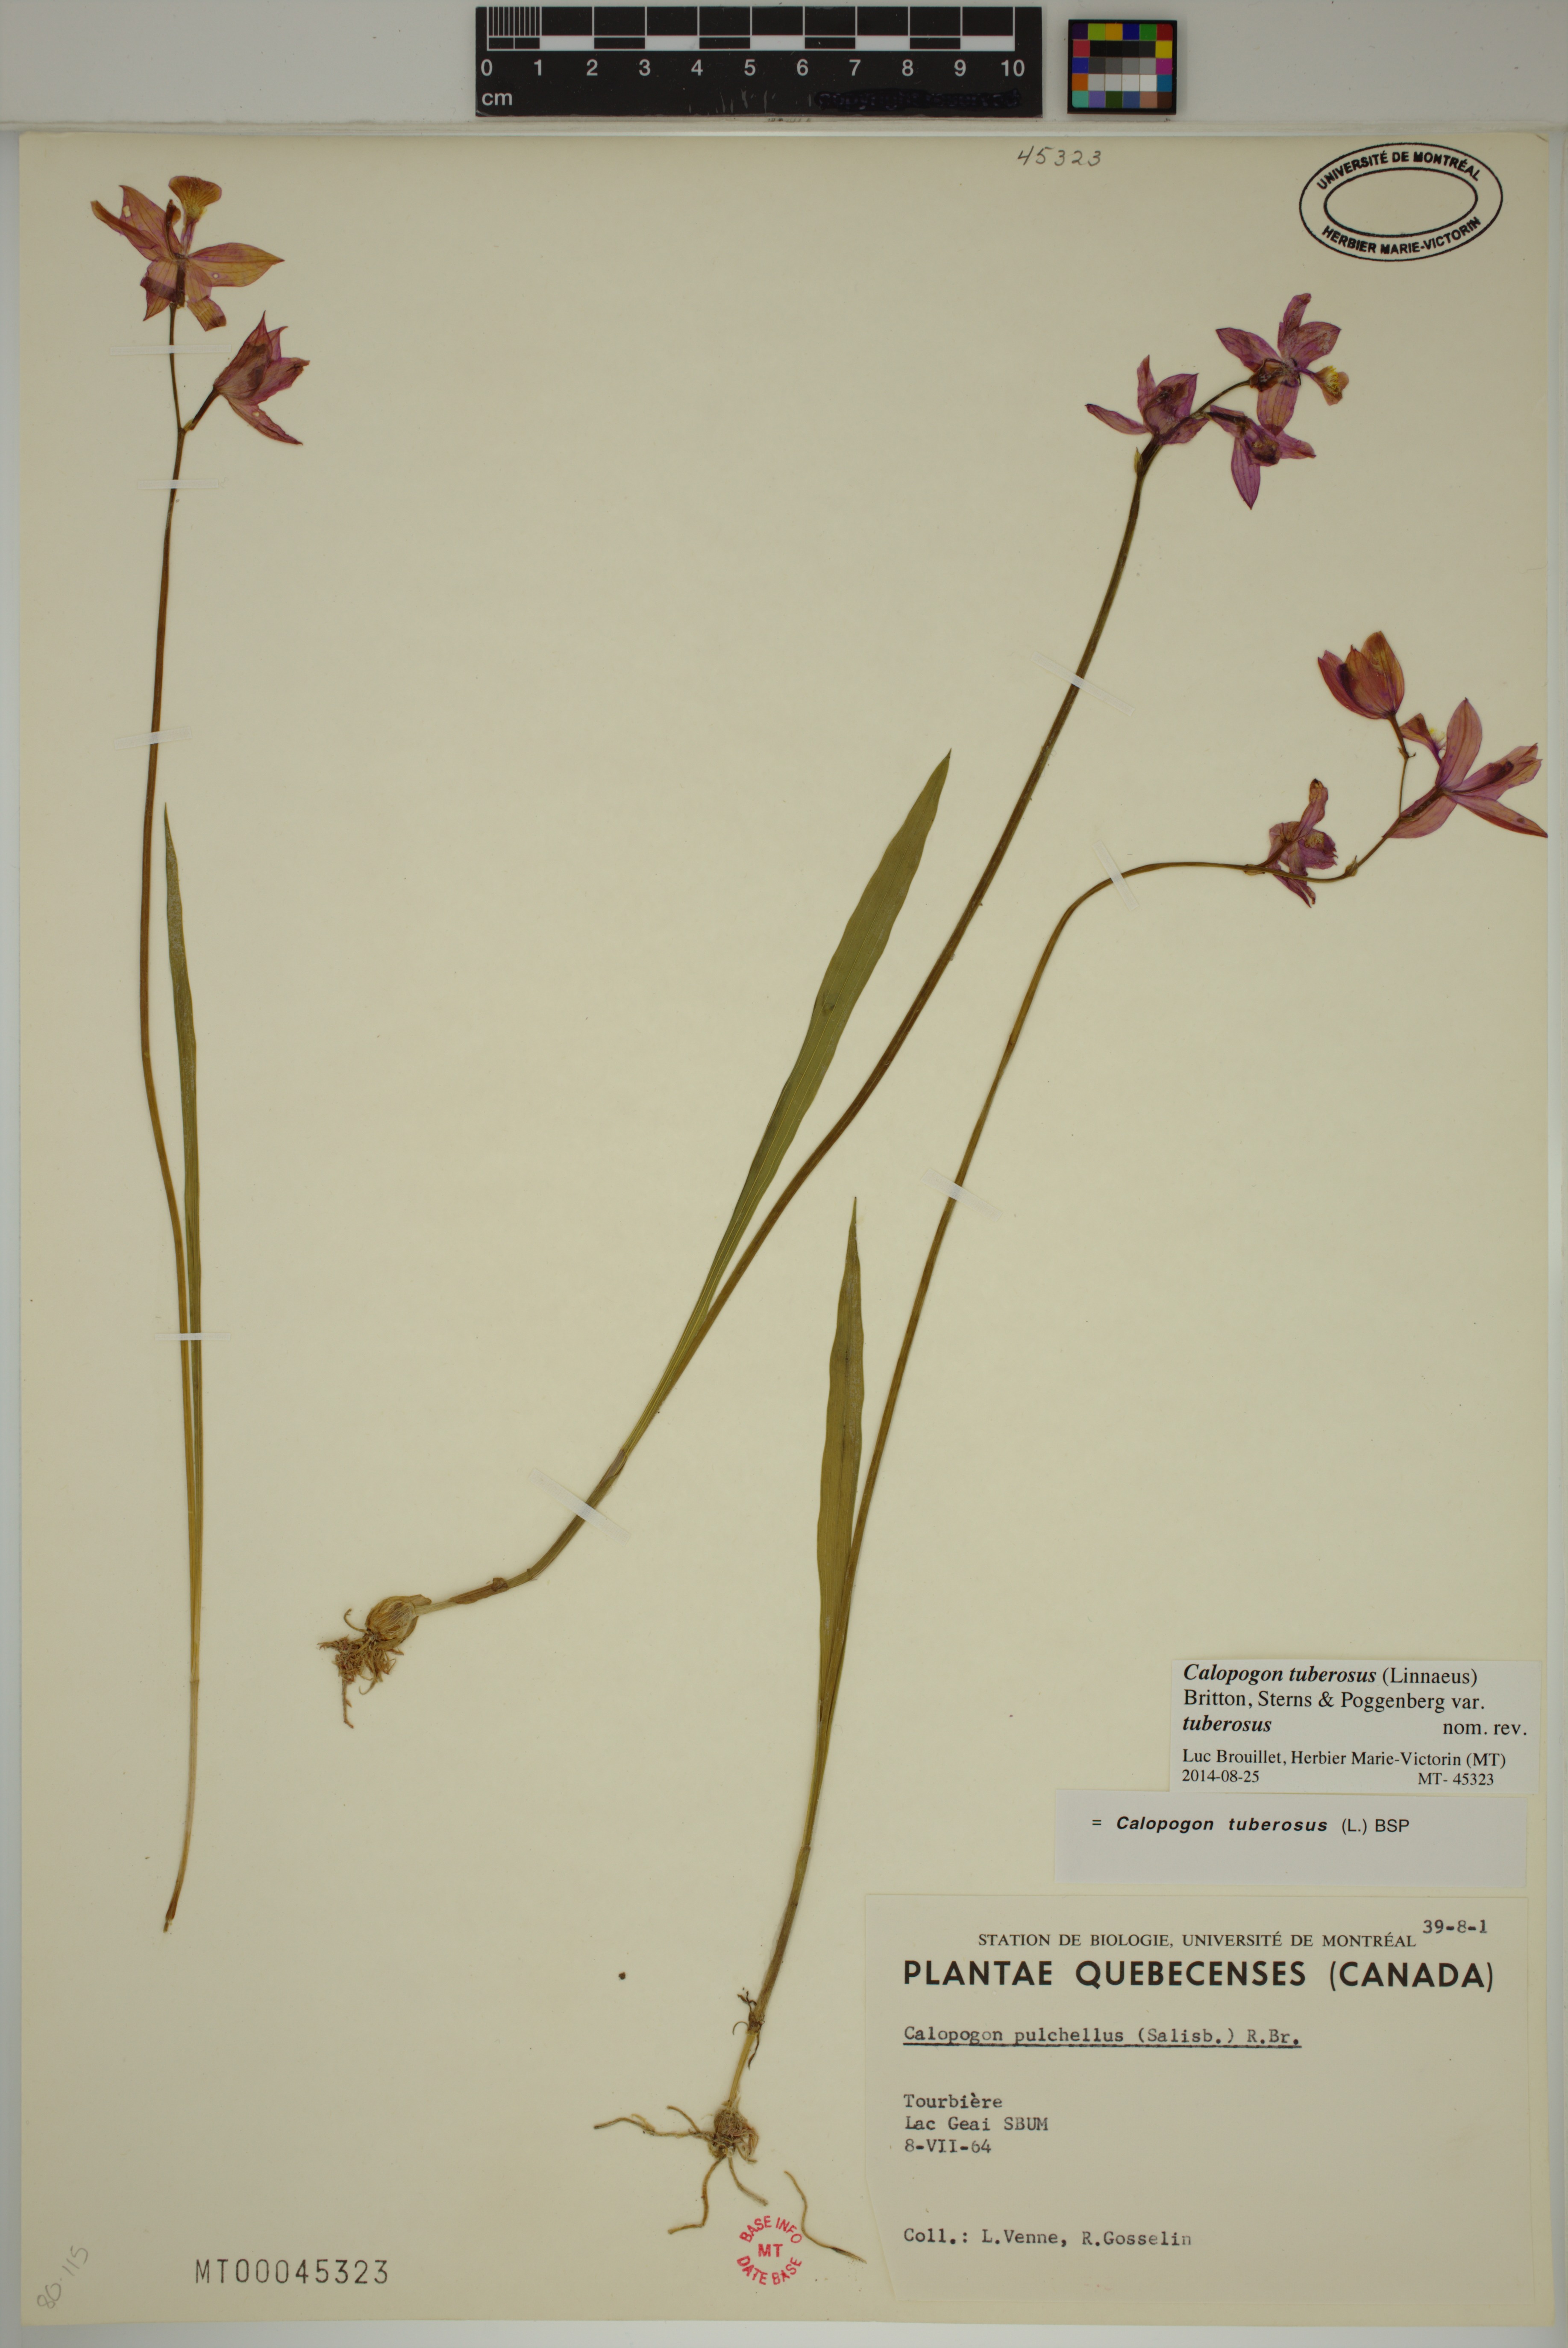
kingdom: Plantae
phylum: Tracheophyta
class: Liliopsida
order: Asparagales
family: Orchidaceae
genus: Calopogon
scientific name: Calopogon tuberosus
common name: Grass-pink
